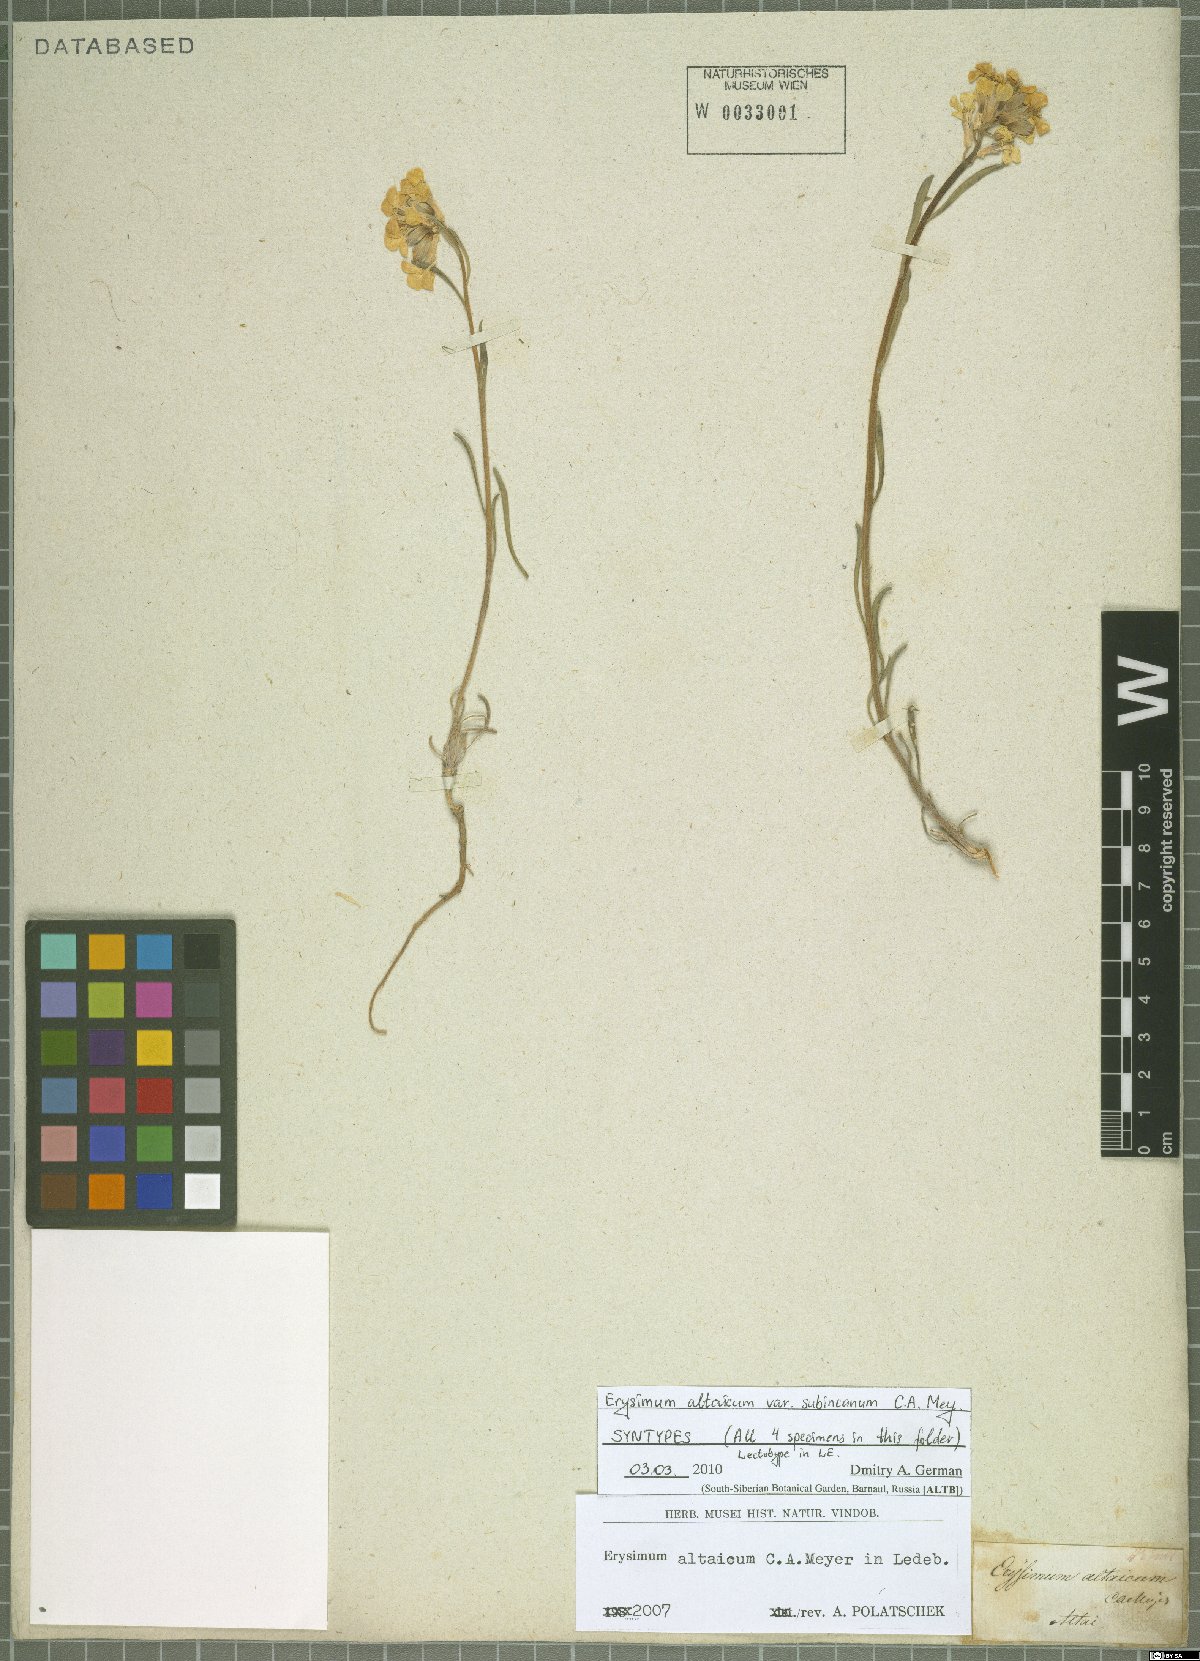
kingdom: Plantae
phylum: Tracheophyta
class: Magnoliopsida
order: Brassicales
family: Brassicaceae
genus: Erysimum
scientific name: Erysimum altaicum
